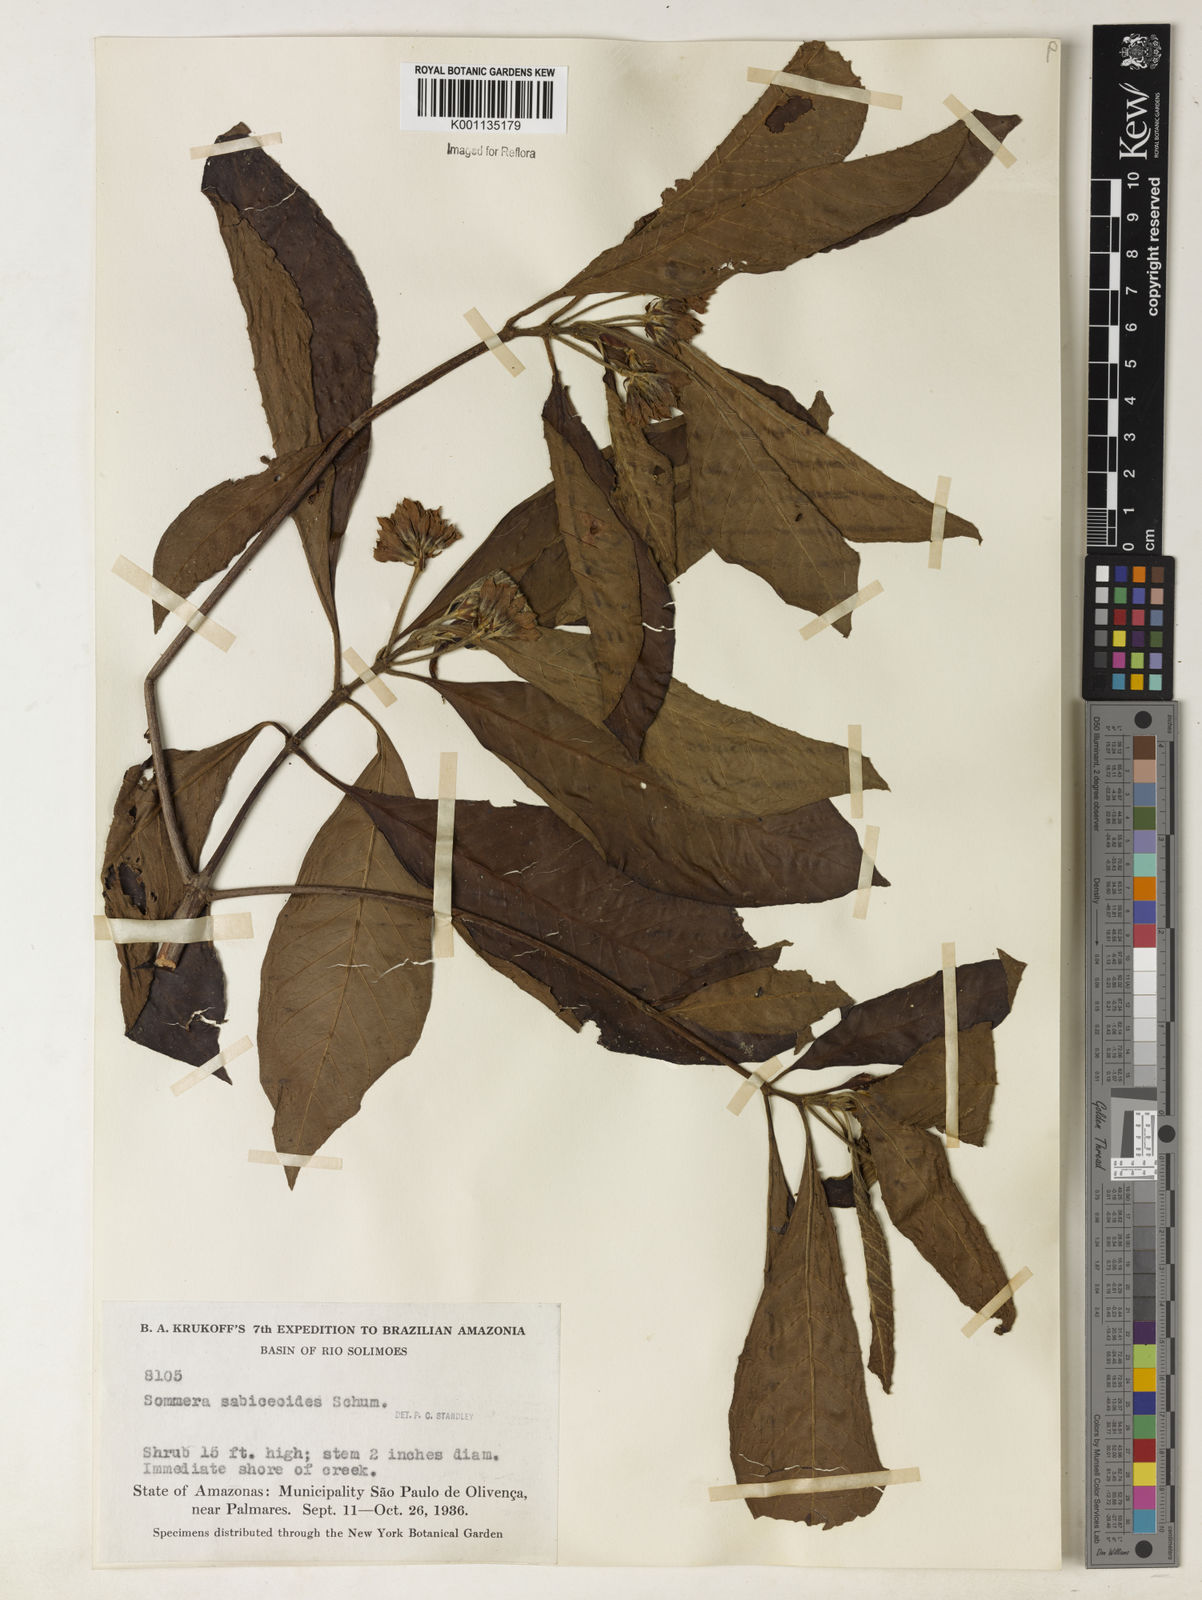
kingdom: Plantae
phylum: Tracheophyta
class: Magnoliopsida
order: Gentianales
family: Rubiaceae
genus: Sommera
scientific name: Sommera sabiceoides
